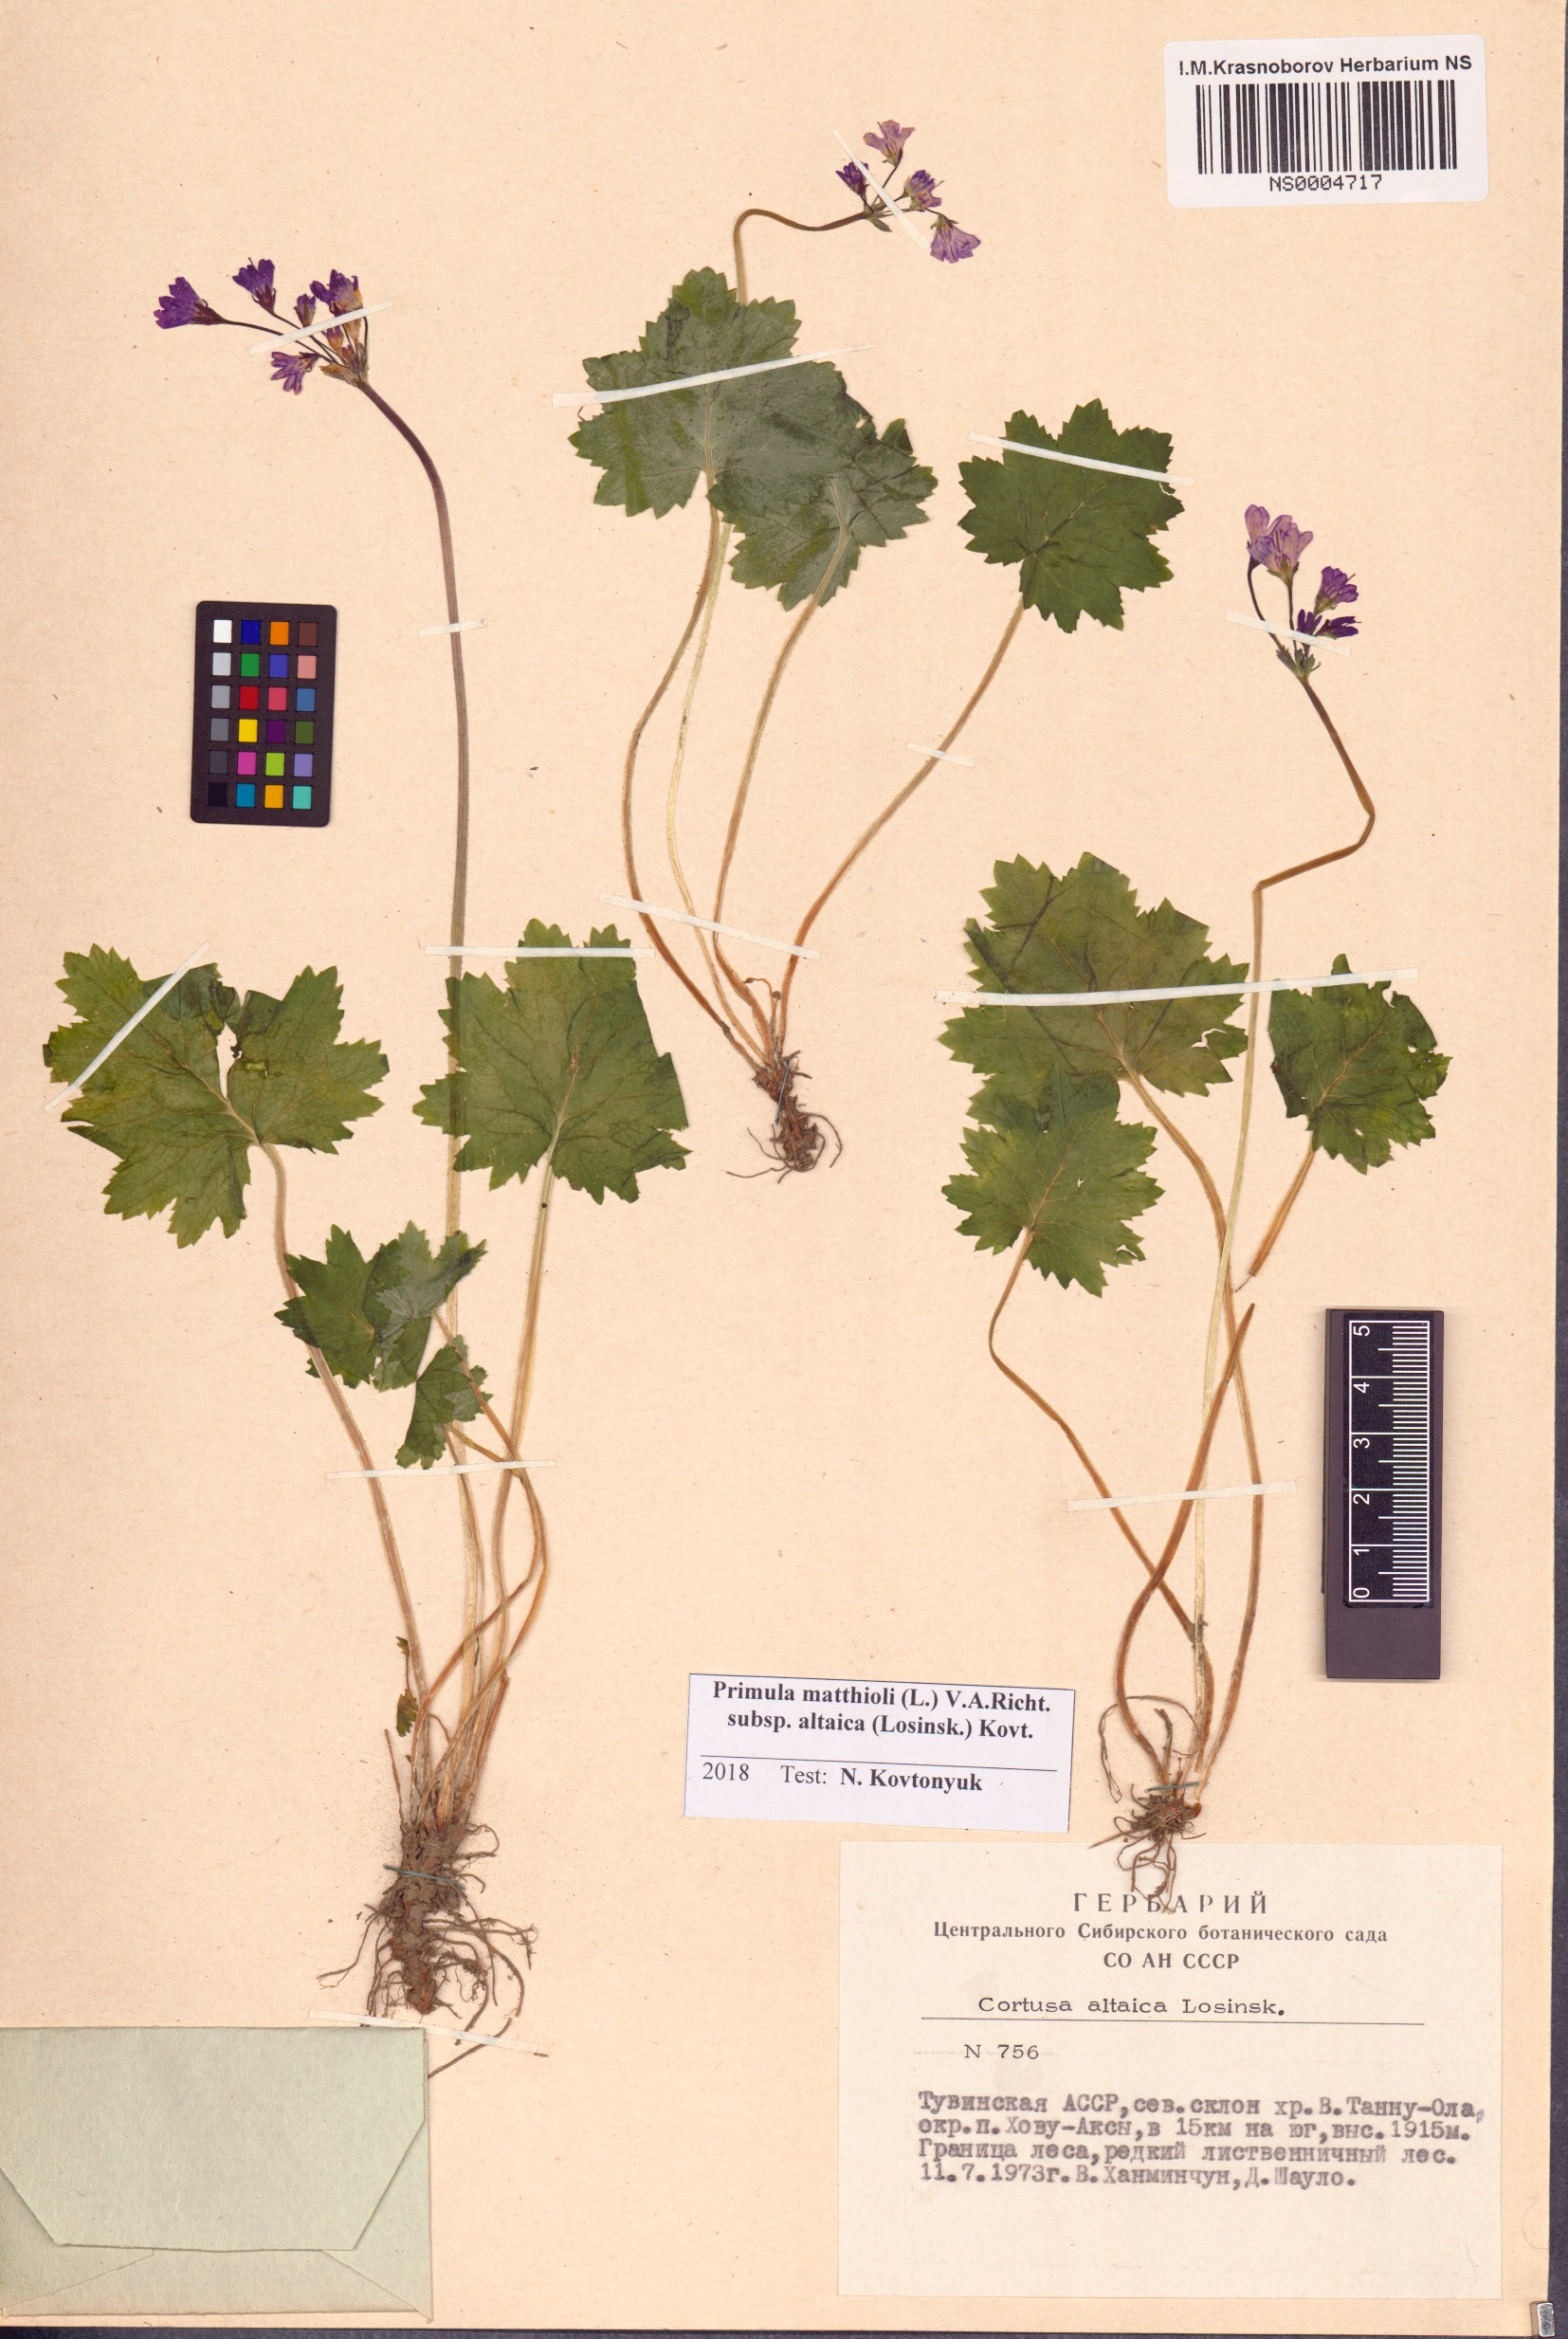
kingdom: Plantae
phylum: Tracheophyta
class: Magnoliopsida
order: Ericales
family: Primulaceae
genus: Primula
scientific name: Primula matthioli
